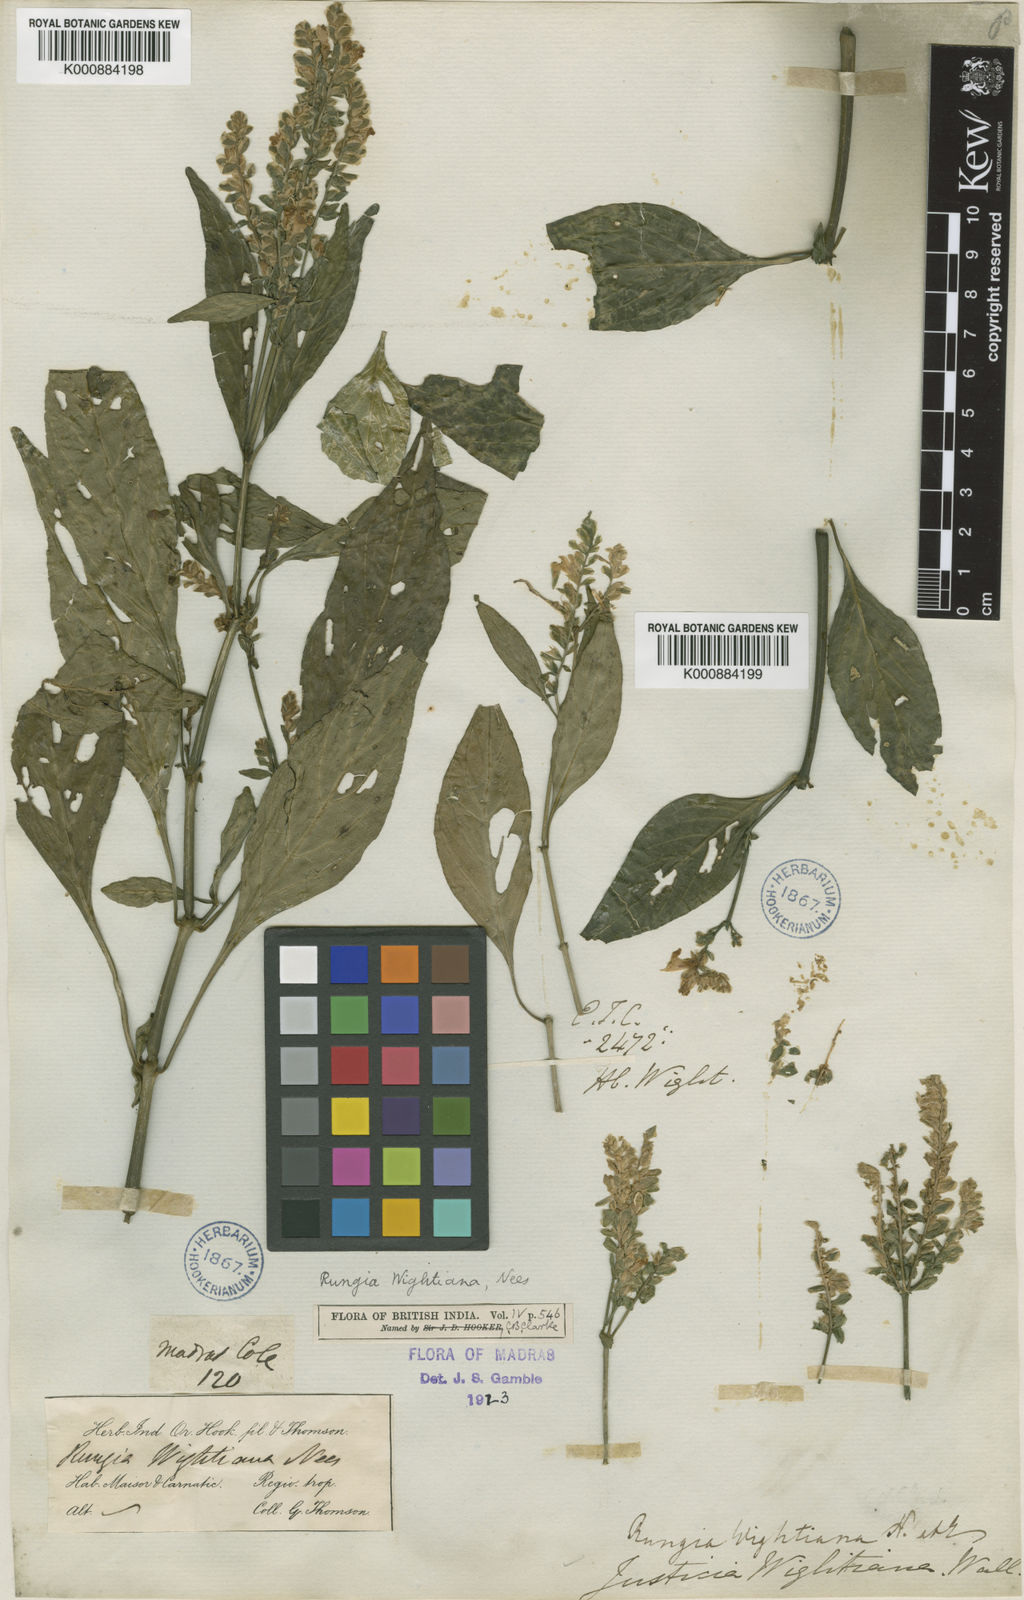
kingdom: Plantae
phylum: Tracheophyta
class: Magnoliopsida
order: Lamiales
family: Acanthaceae
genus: Rungia
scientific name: Rungia wightiana
